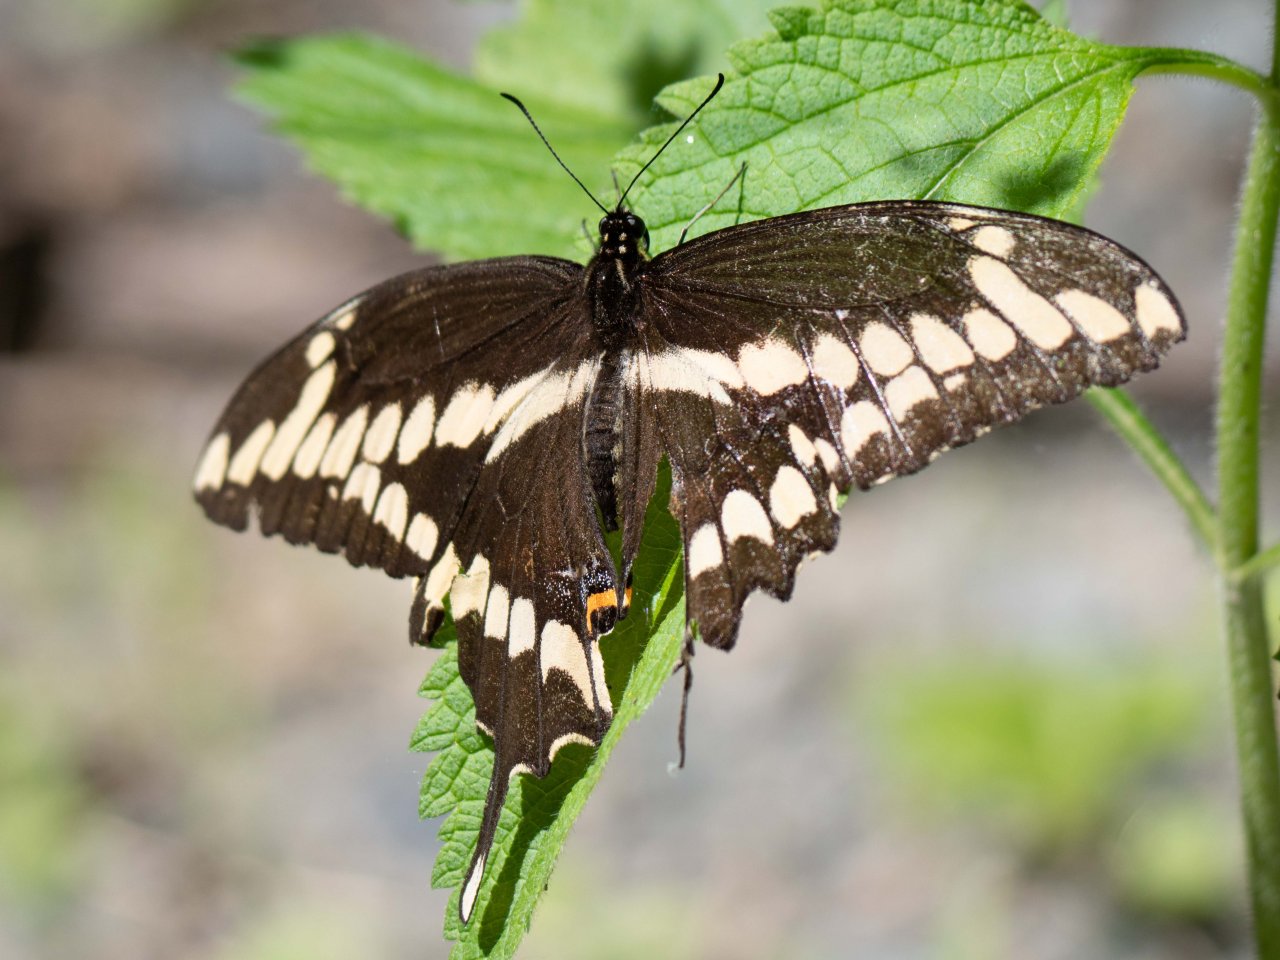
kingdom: Animalia
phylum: Arthropoda
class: Insecta
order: Lepidoptera
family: Papilionidae
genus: Papilio
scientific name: Papilio cresphontes
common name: Eastern Giant Swallowtail
